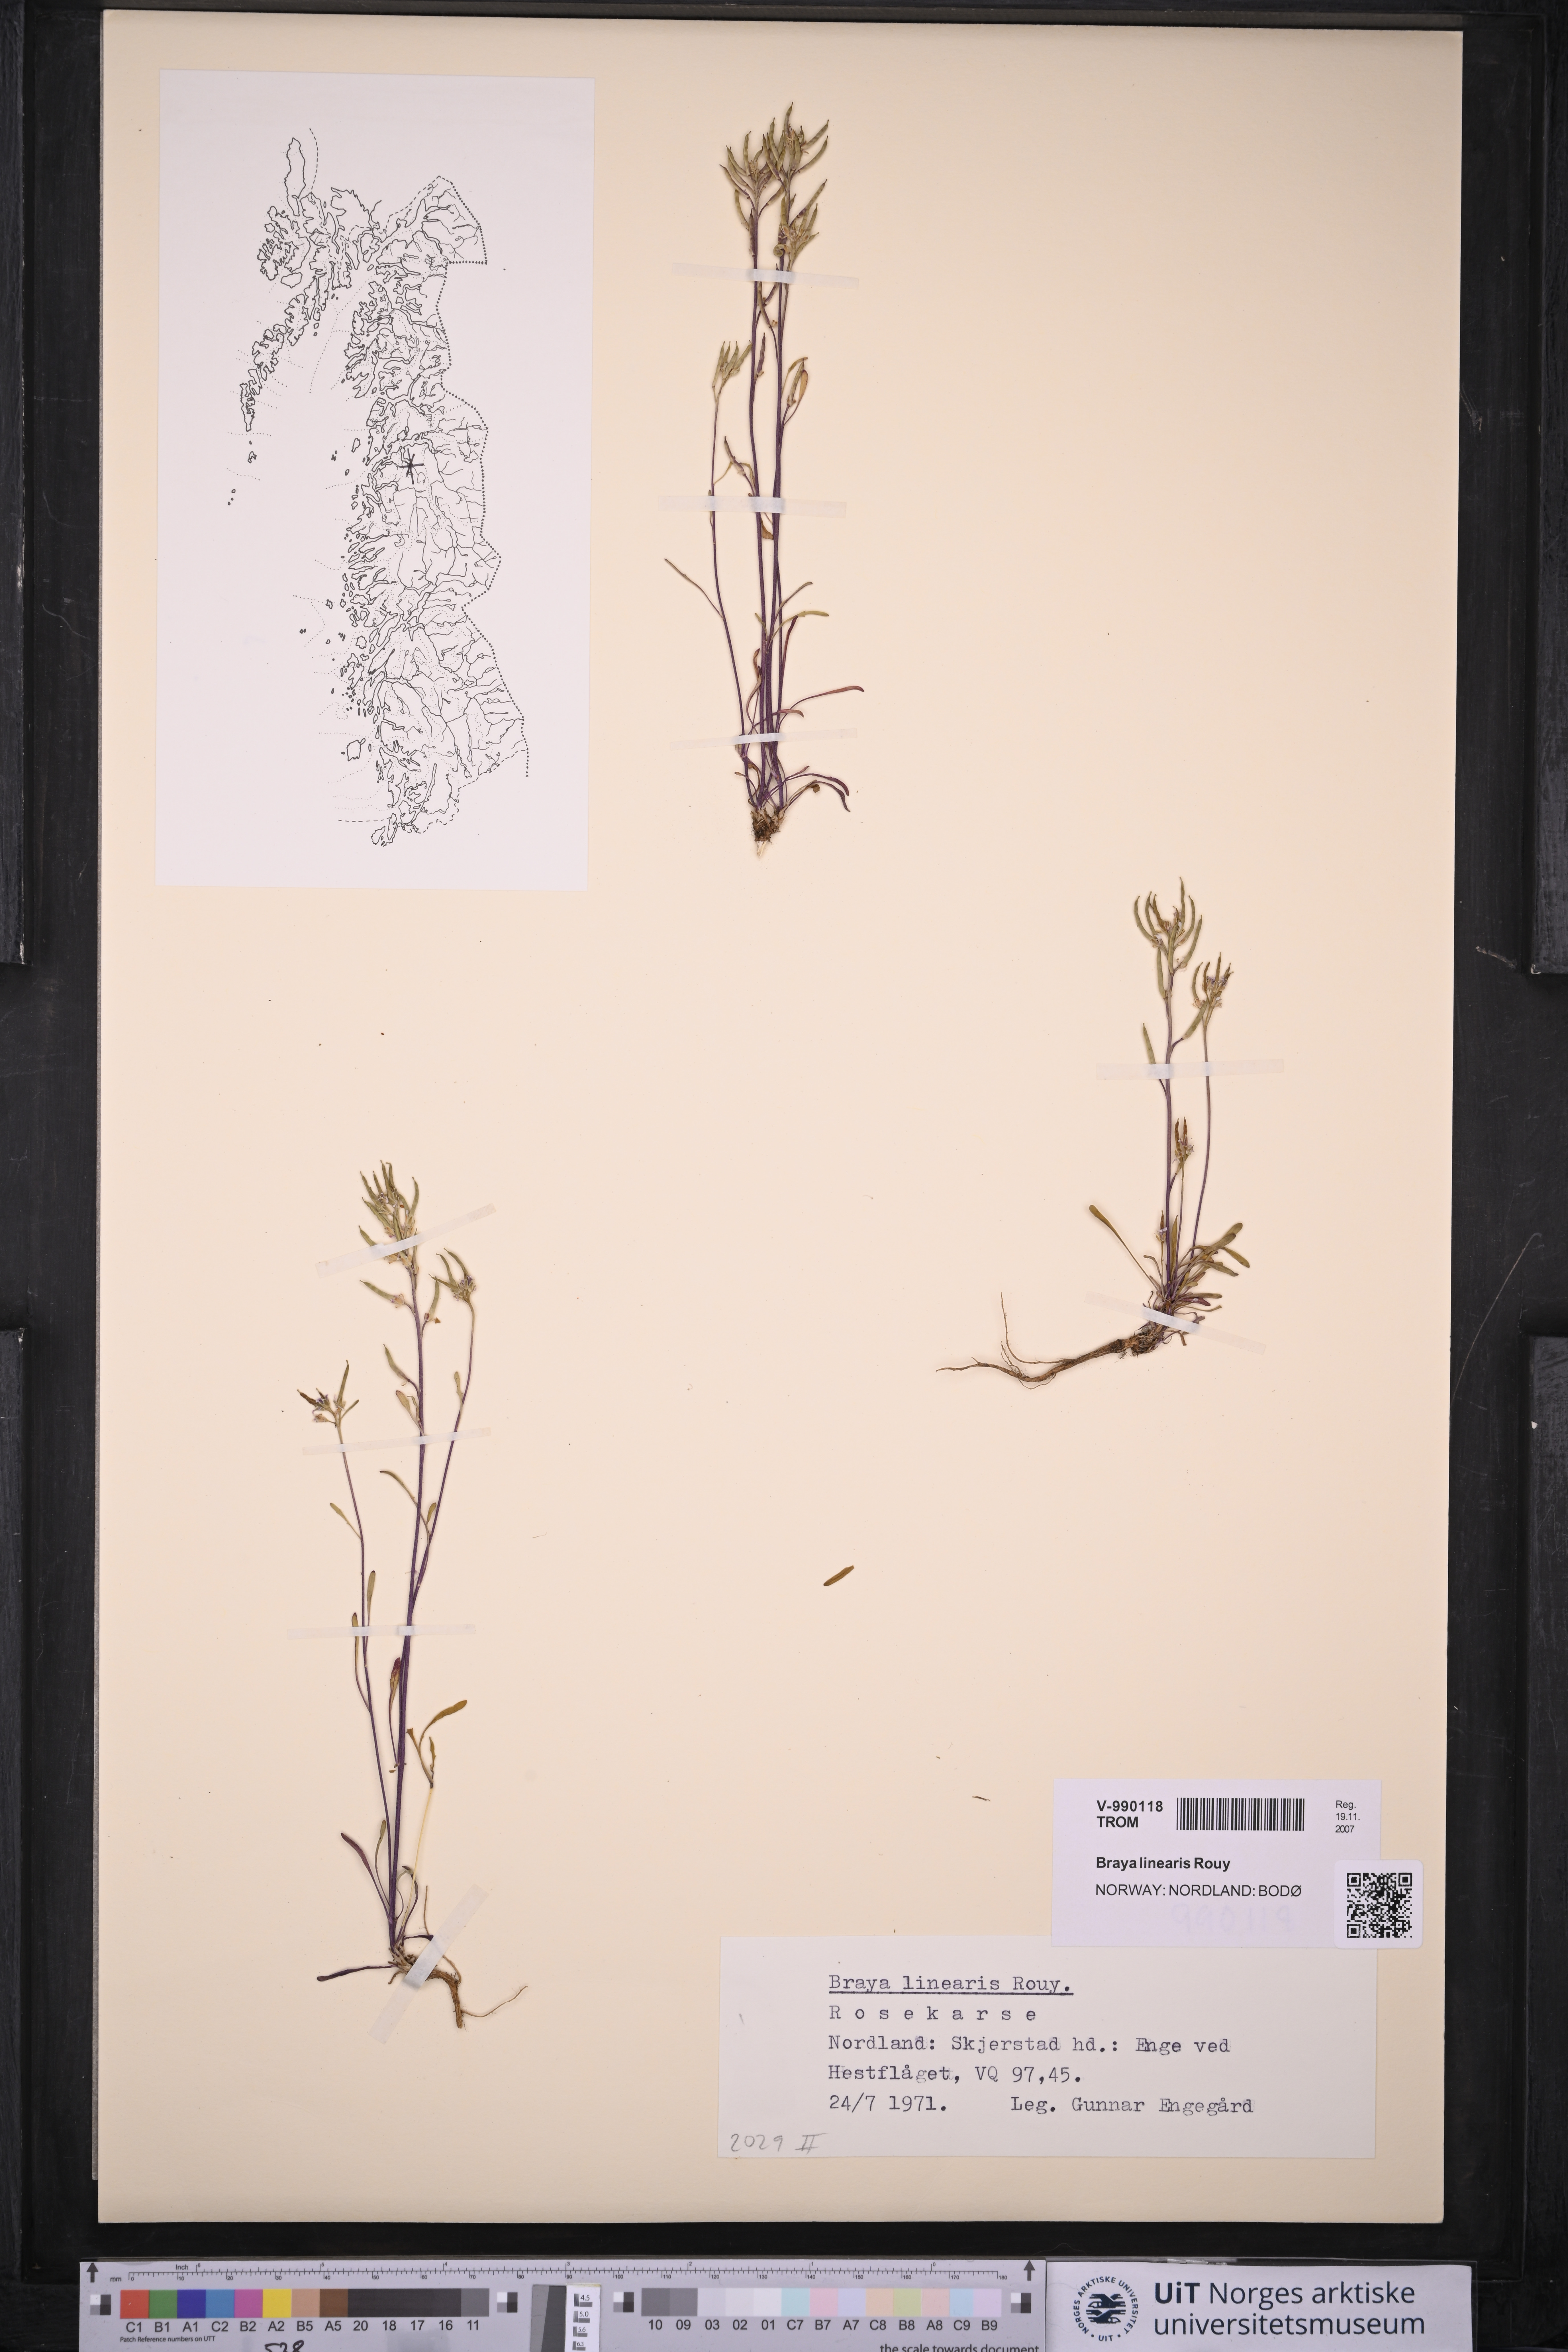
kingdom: Plantae
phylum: Tracheophyta
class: Magnoliopsida
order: Brassicales
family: Brassicaceae
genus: Braya
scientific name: Braya linearis
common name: Narrow-fruit braya
